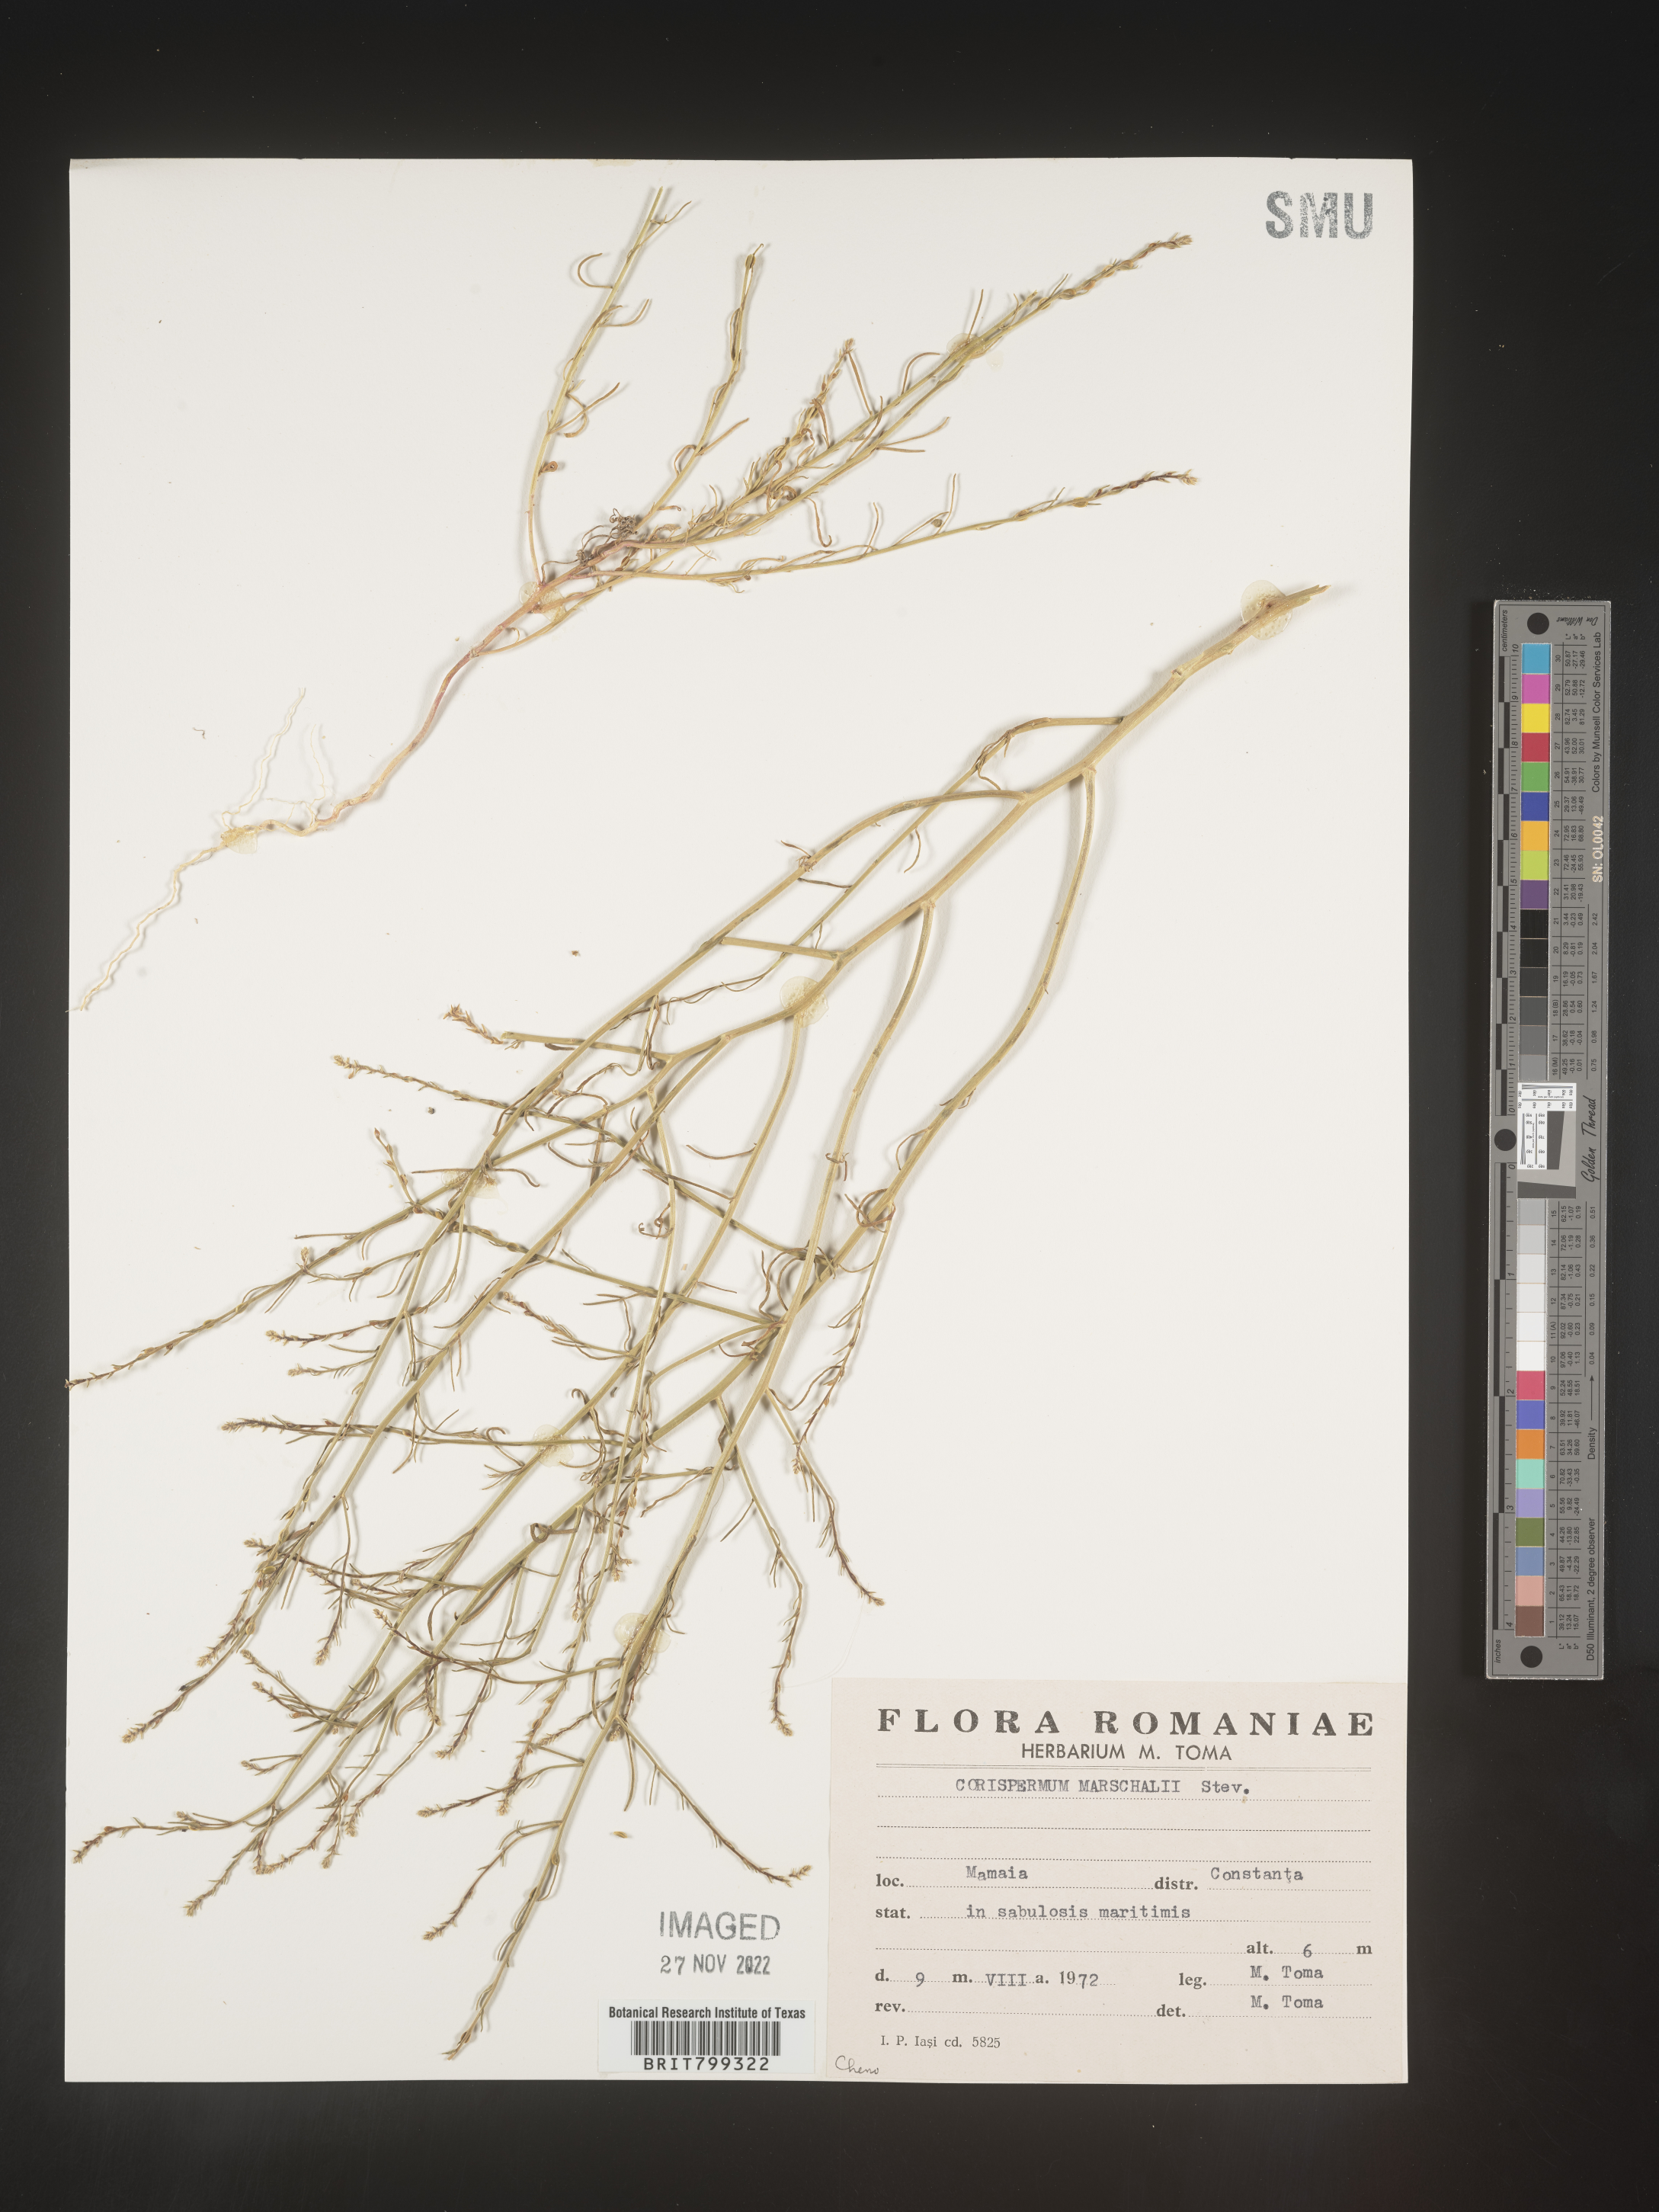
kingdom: Plantae
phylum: Tracheophyta
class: Magnoliopsida
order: Caryophyllales
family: Amaranthaceae
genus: Corispermum
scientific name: Corispermum
